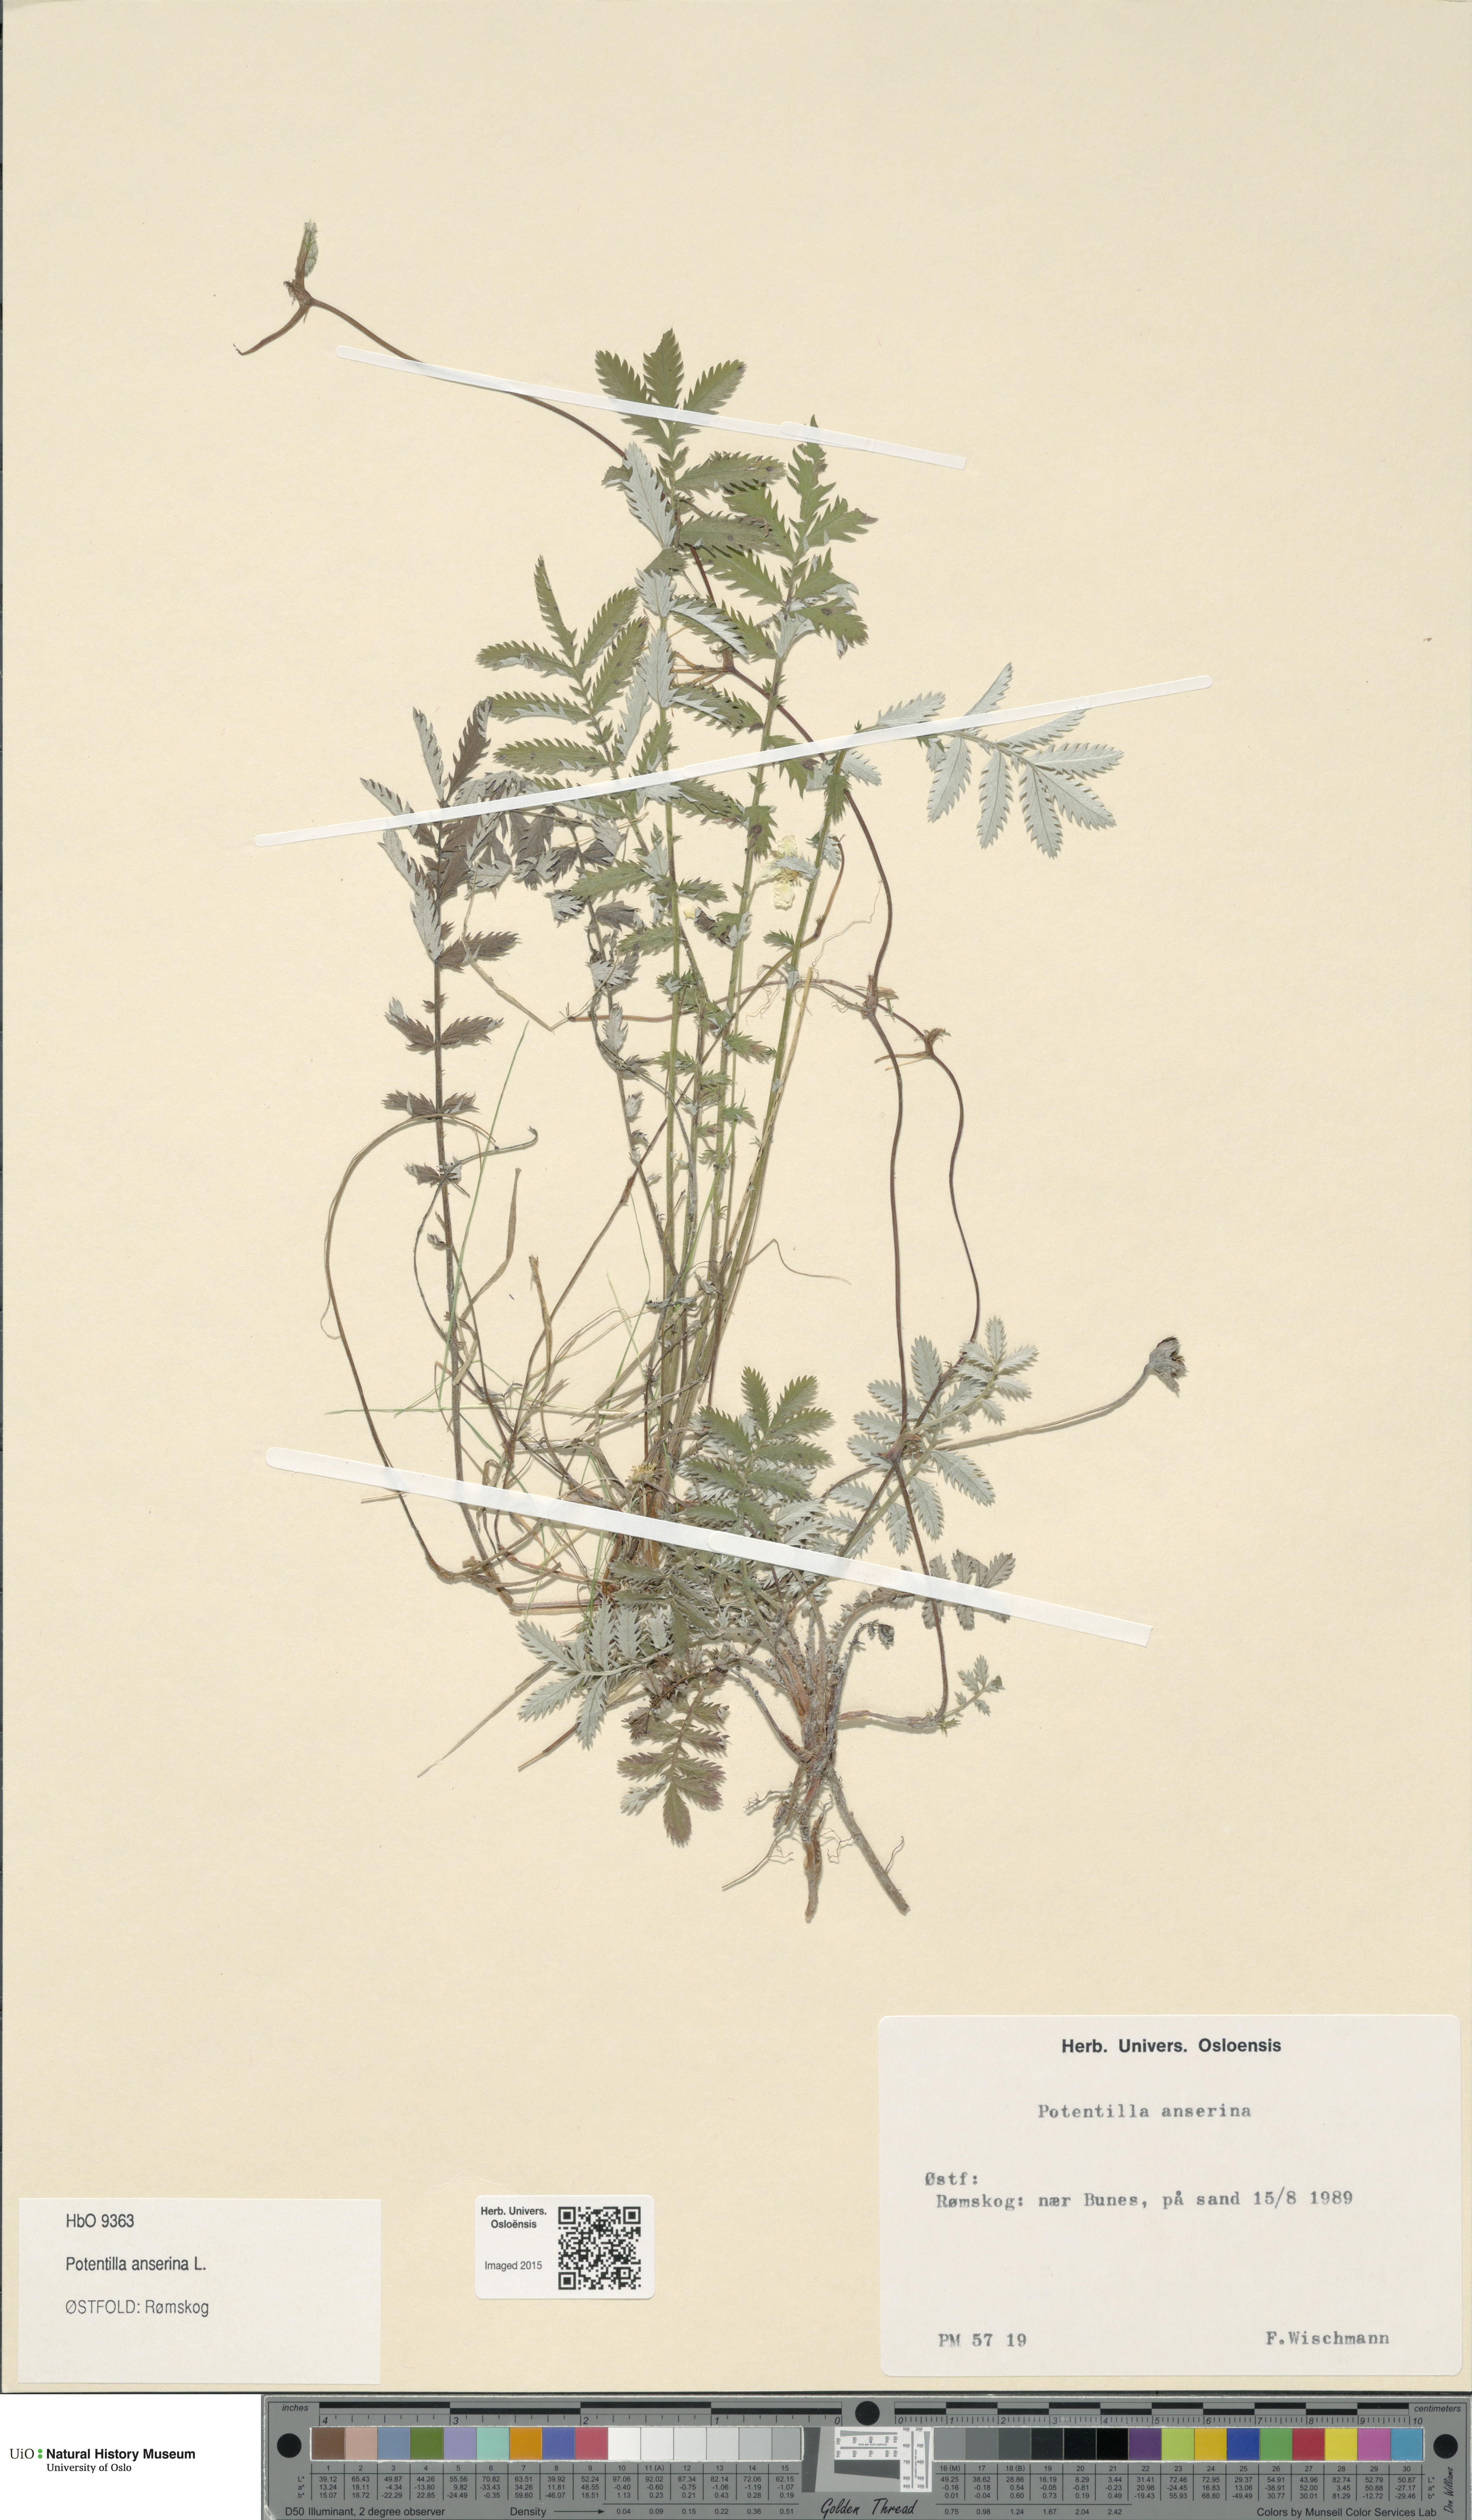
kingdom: Plantae
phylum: Tracheophyta
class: Magnoliopsida
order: Rosales
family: Rosaceae
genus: Argentina
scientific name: Argentina anserina
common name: Common silverweed
